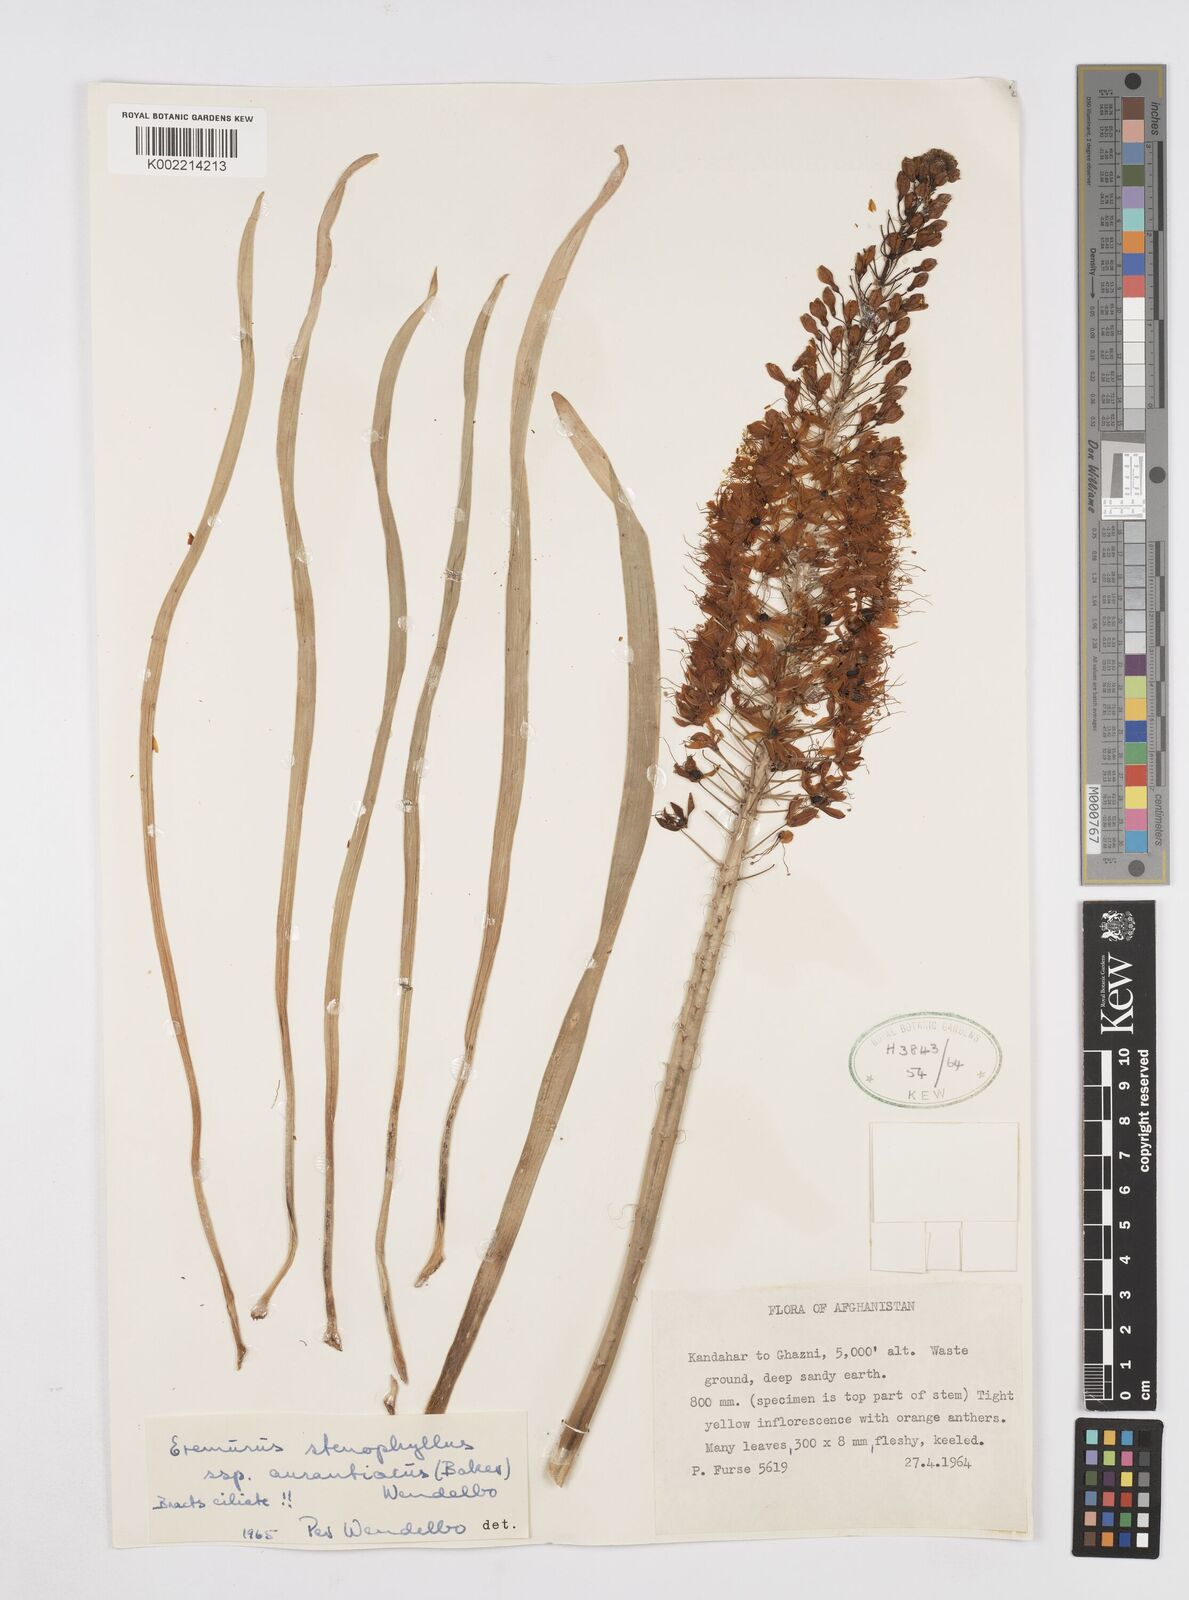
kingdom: Plantae
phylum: Tracheophyta
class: Liliopsida
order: Asparagales
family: Asphodelaceae
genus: Eremurus
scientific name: Eremurus stenophyllus
